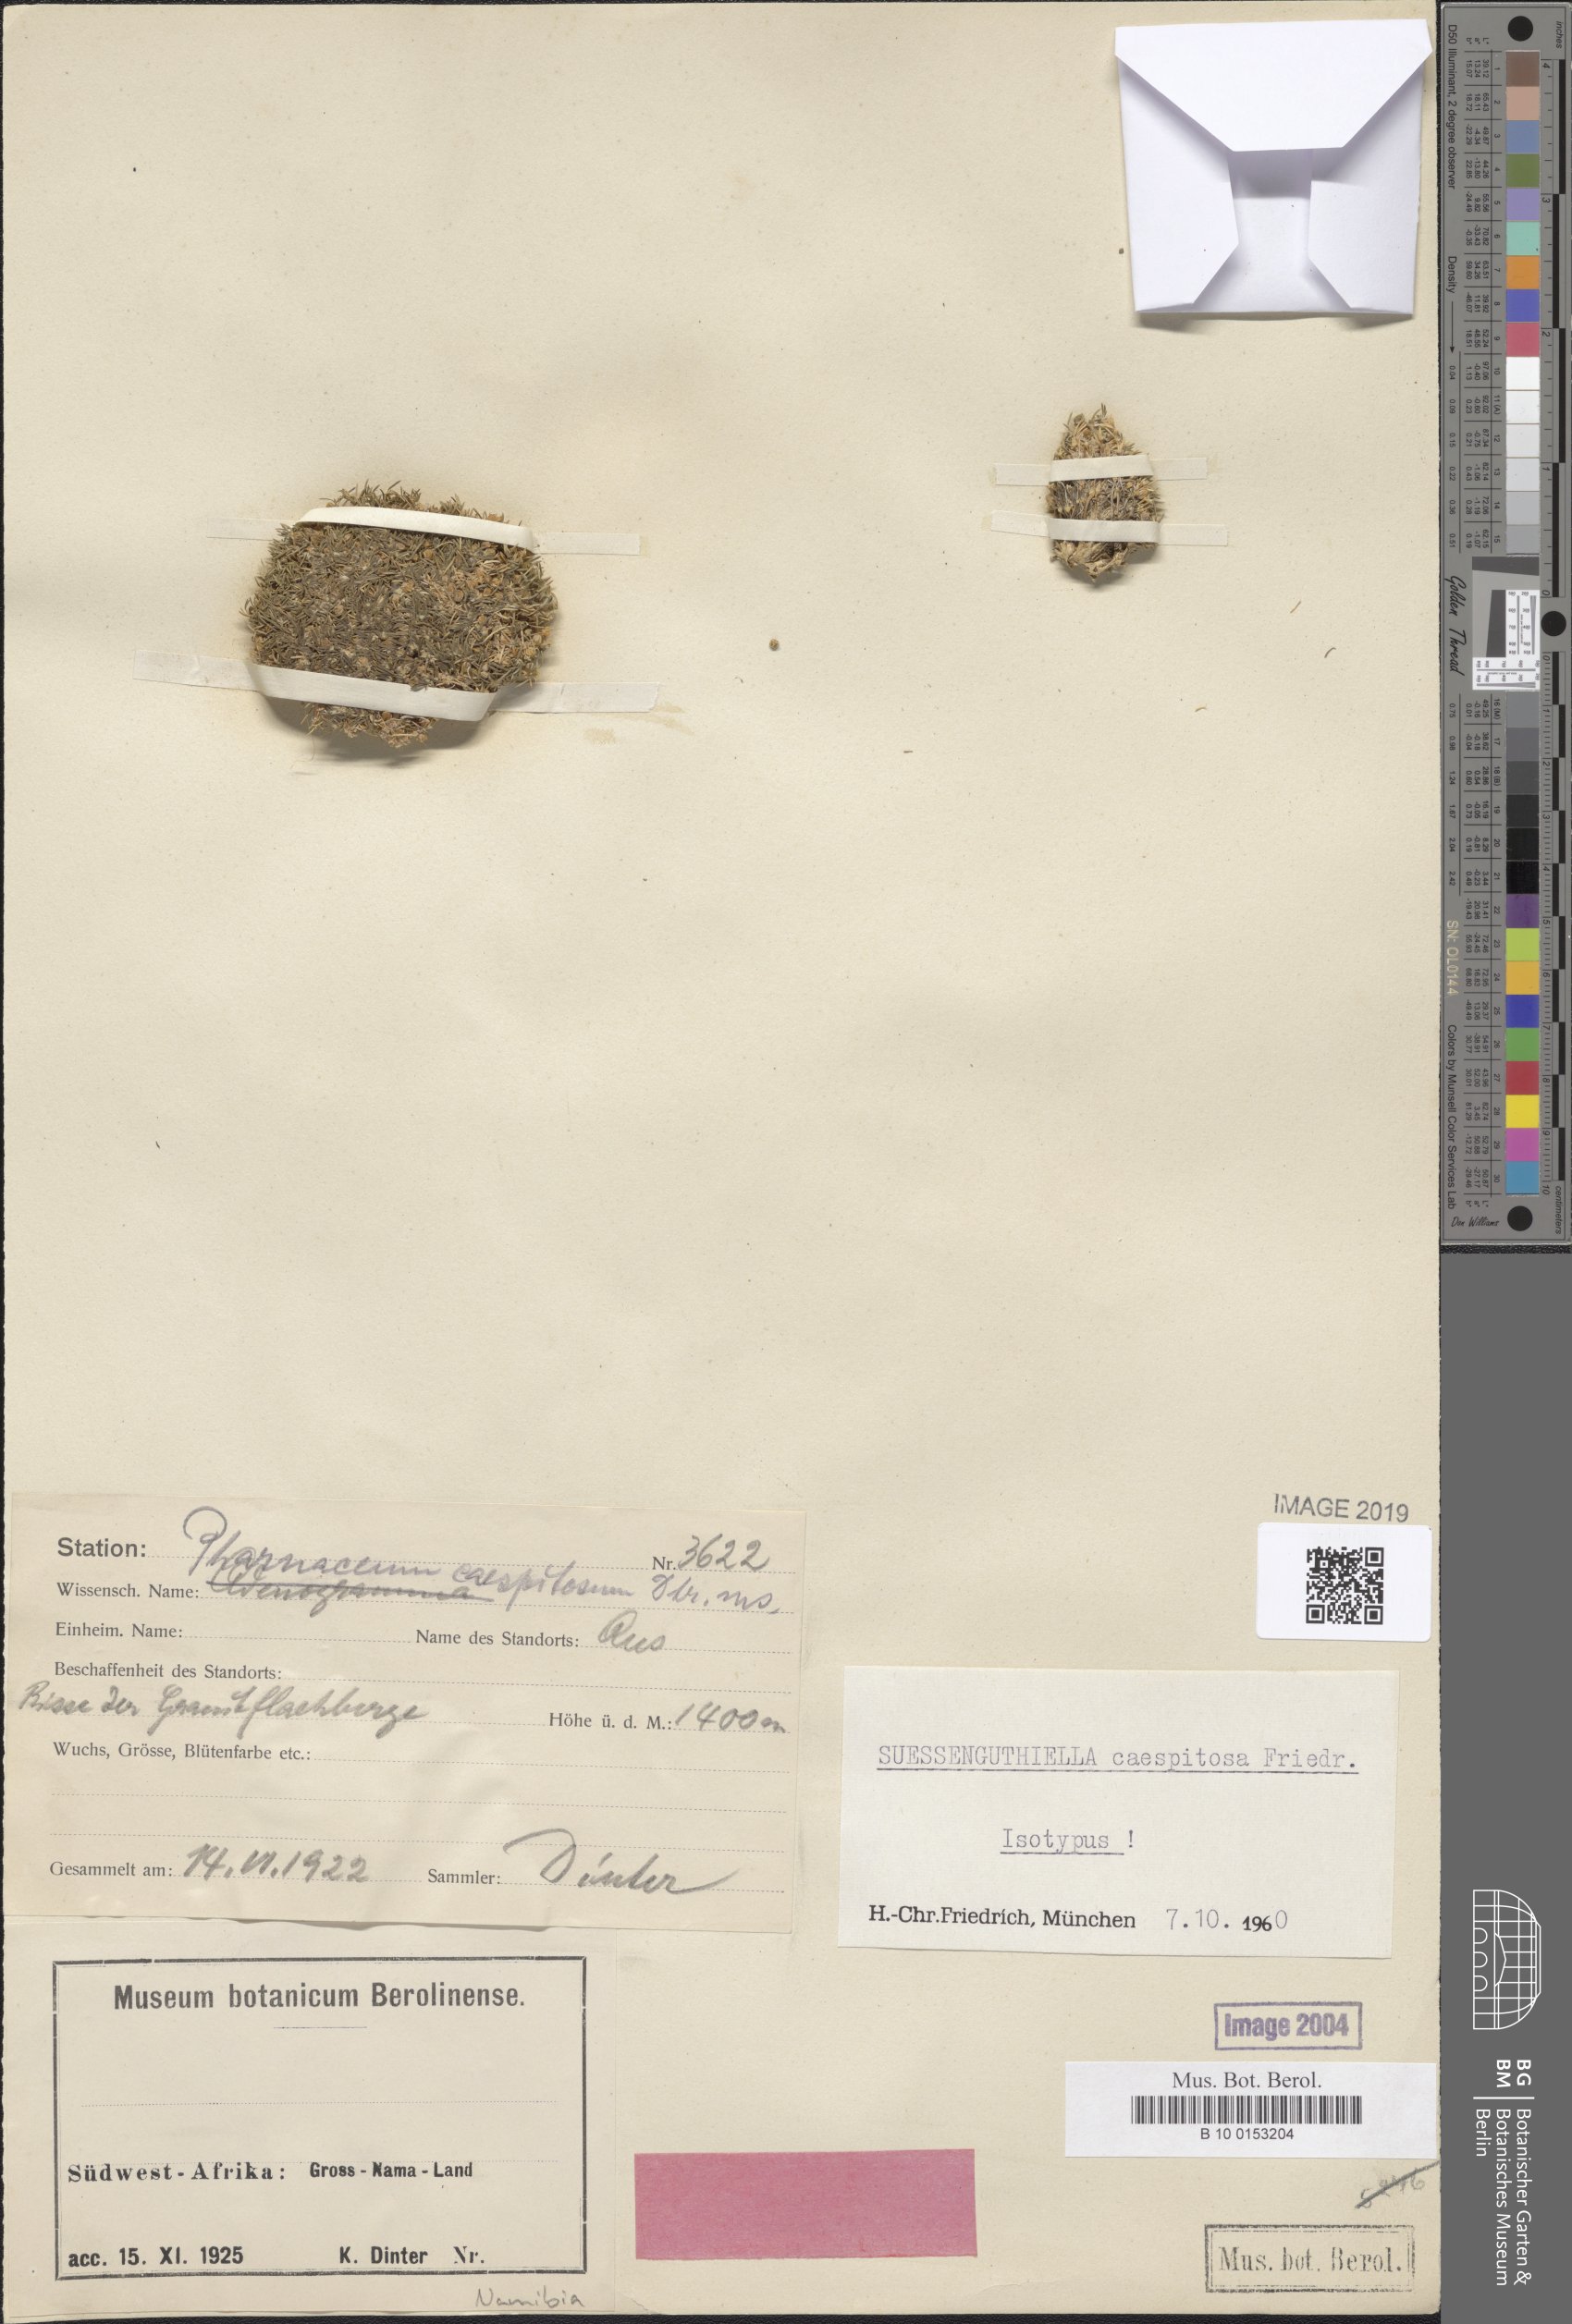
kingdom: Plantae
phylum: Tracheophyta
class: Magnoliopsida
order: Caryophyllales
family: Molluginaceae
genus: Suessenguthiella
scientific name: Suessenguthiella scleranthoides
